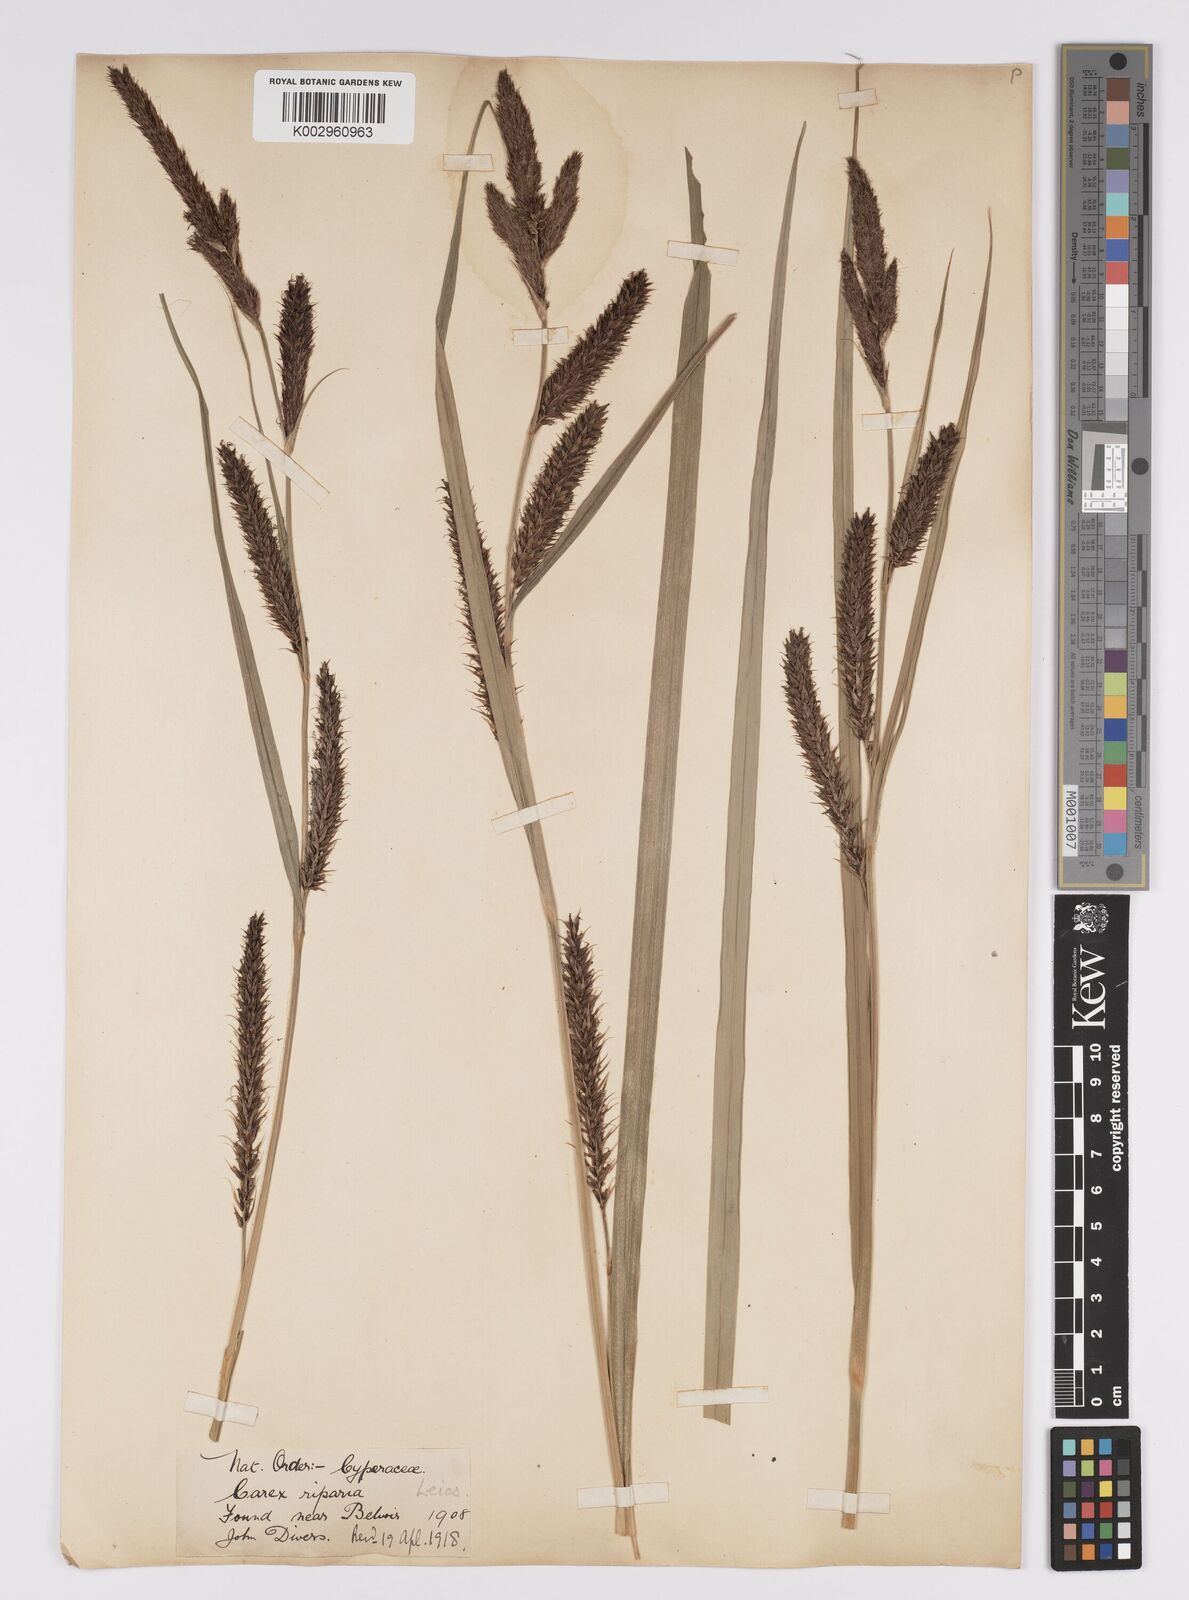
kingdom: Plantae
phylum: Tracheophyta
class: Liliopsida
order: Poales
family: Cyperaceae
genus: Carex
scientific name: Carex riparia
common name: Greater pond-sedge
